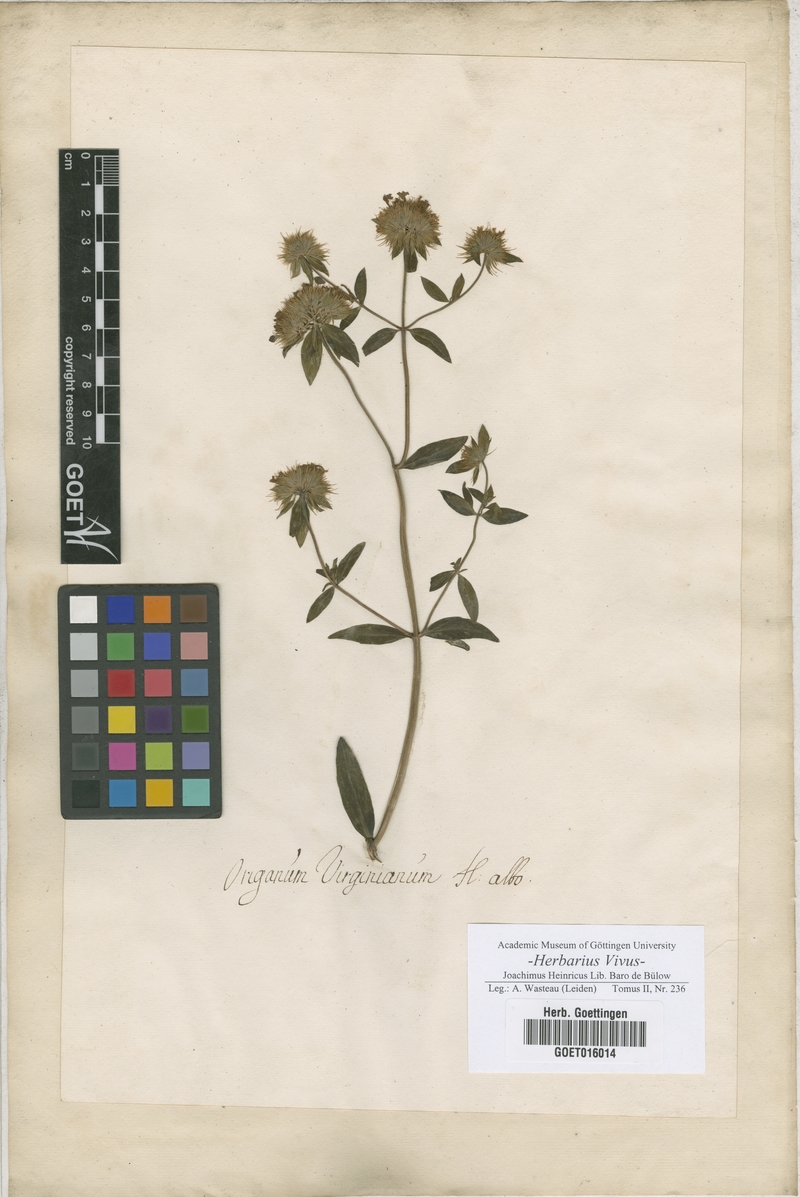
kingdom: Plantae
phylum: Tracheophyta
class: Magnoliopsida
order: Lamiales
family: Lamiaceae
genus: Origanum
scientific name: Origanum
